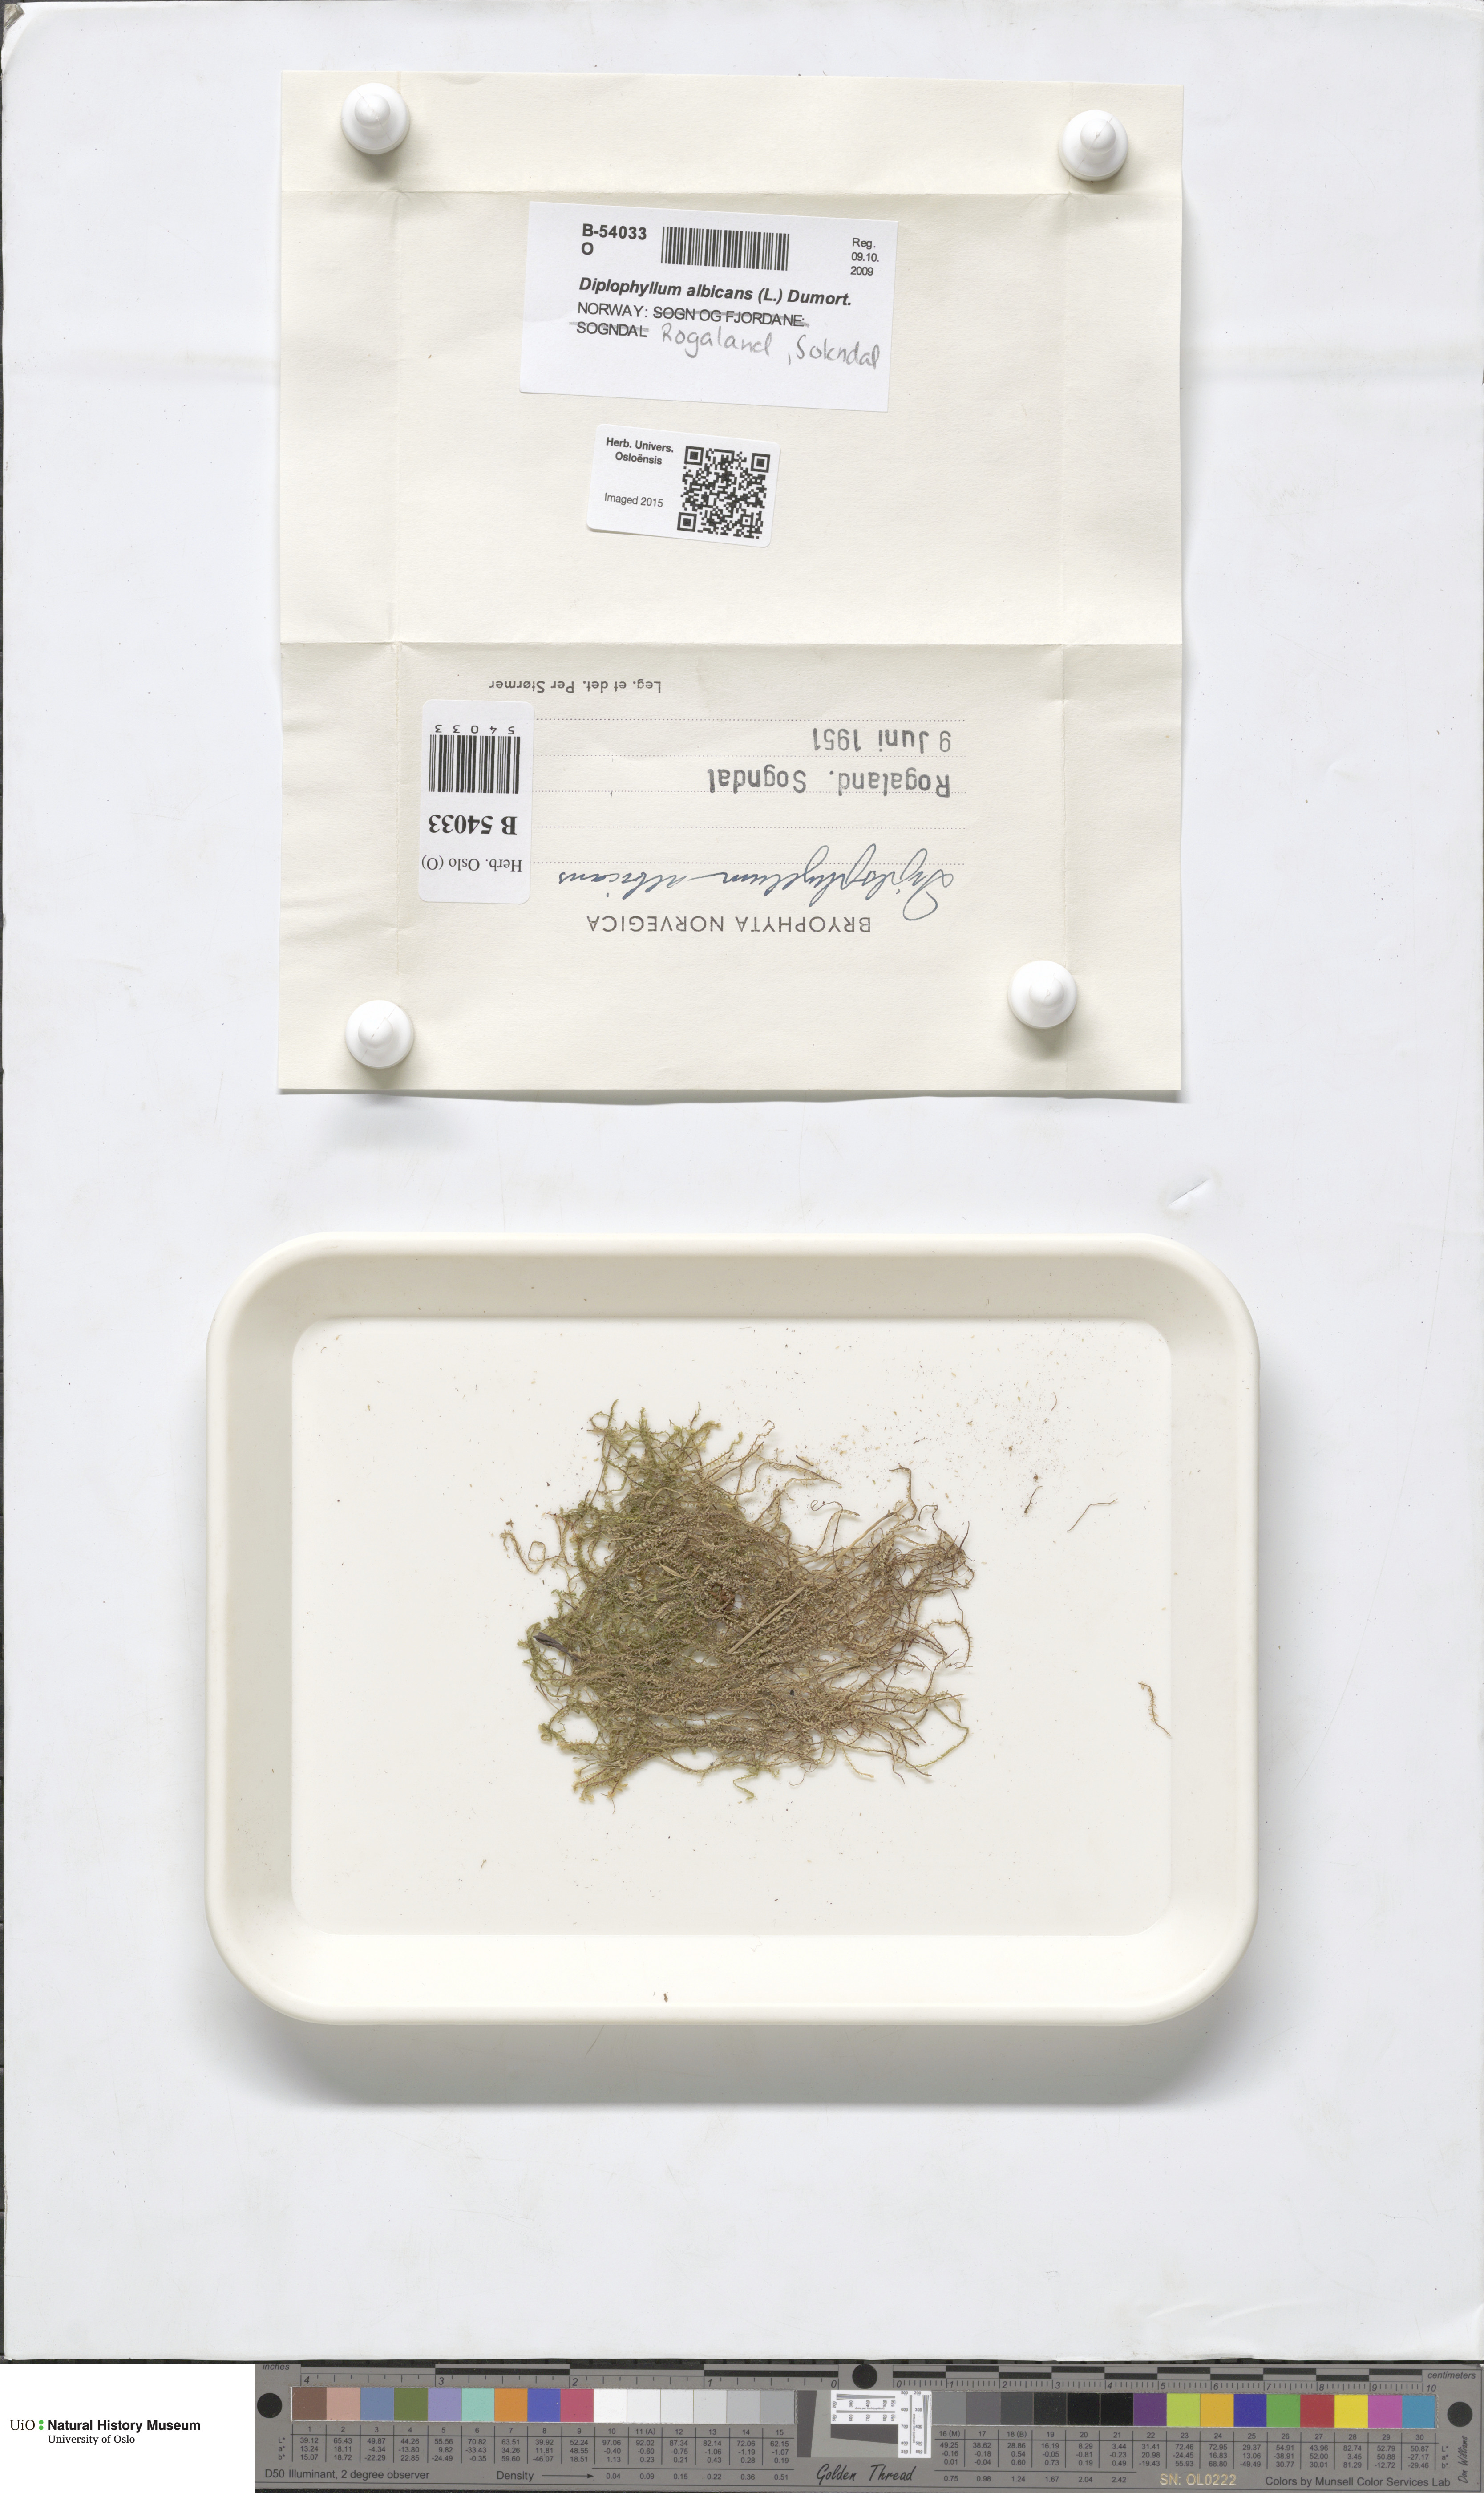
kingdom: Plantae
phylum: Marchantiophyta
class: Jungermanniopsida
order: Jungermanniales
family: Scapaniaceae
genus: Diplophyllum
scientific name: Diplophyllum albicans
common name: White earwort
